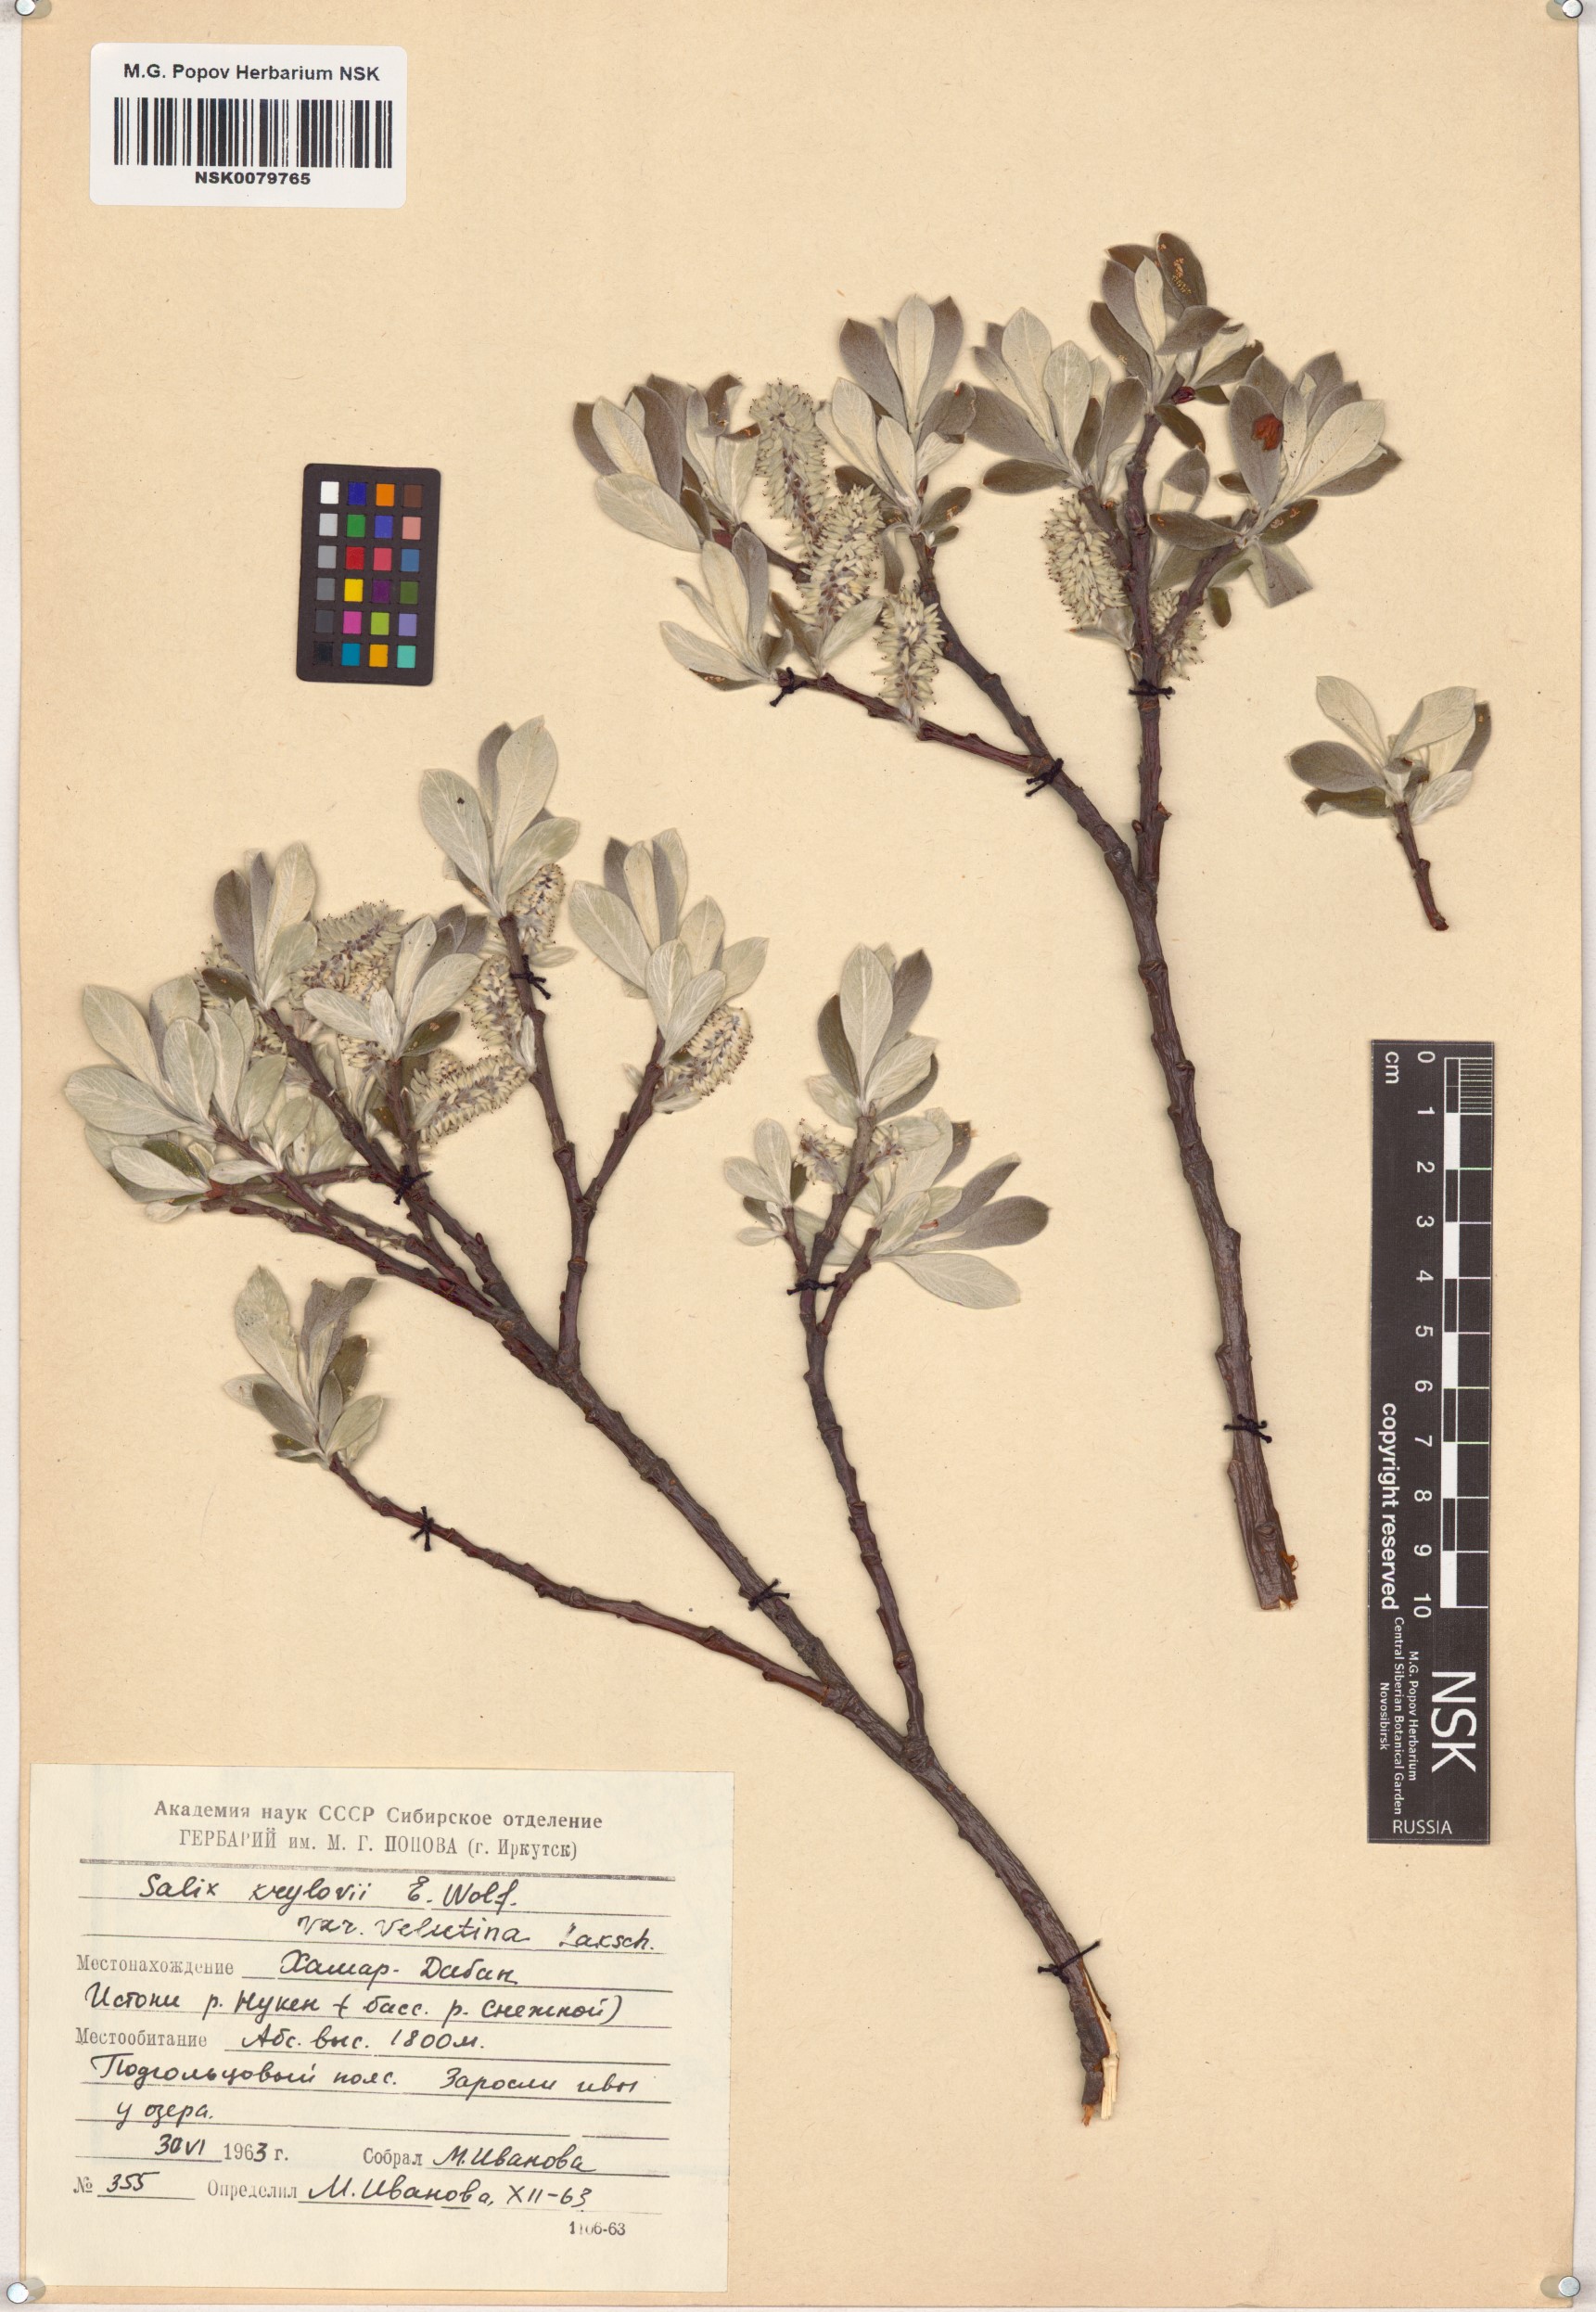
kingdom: Plantae
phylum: Tracheophyta
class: Magnoliopsida
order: Malpighiales
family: Salicaceae
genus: Salix
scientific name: Salix krylovii
